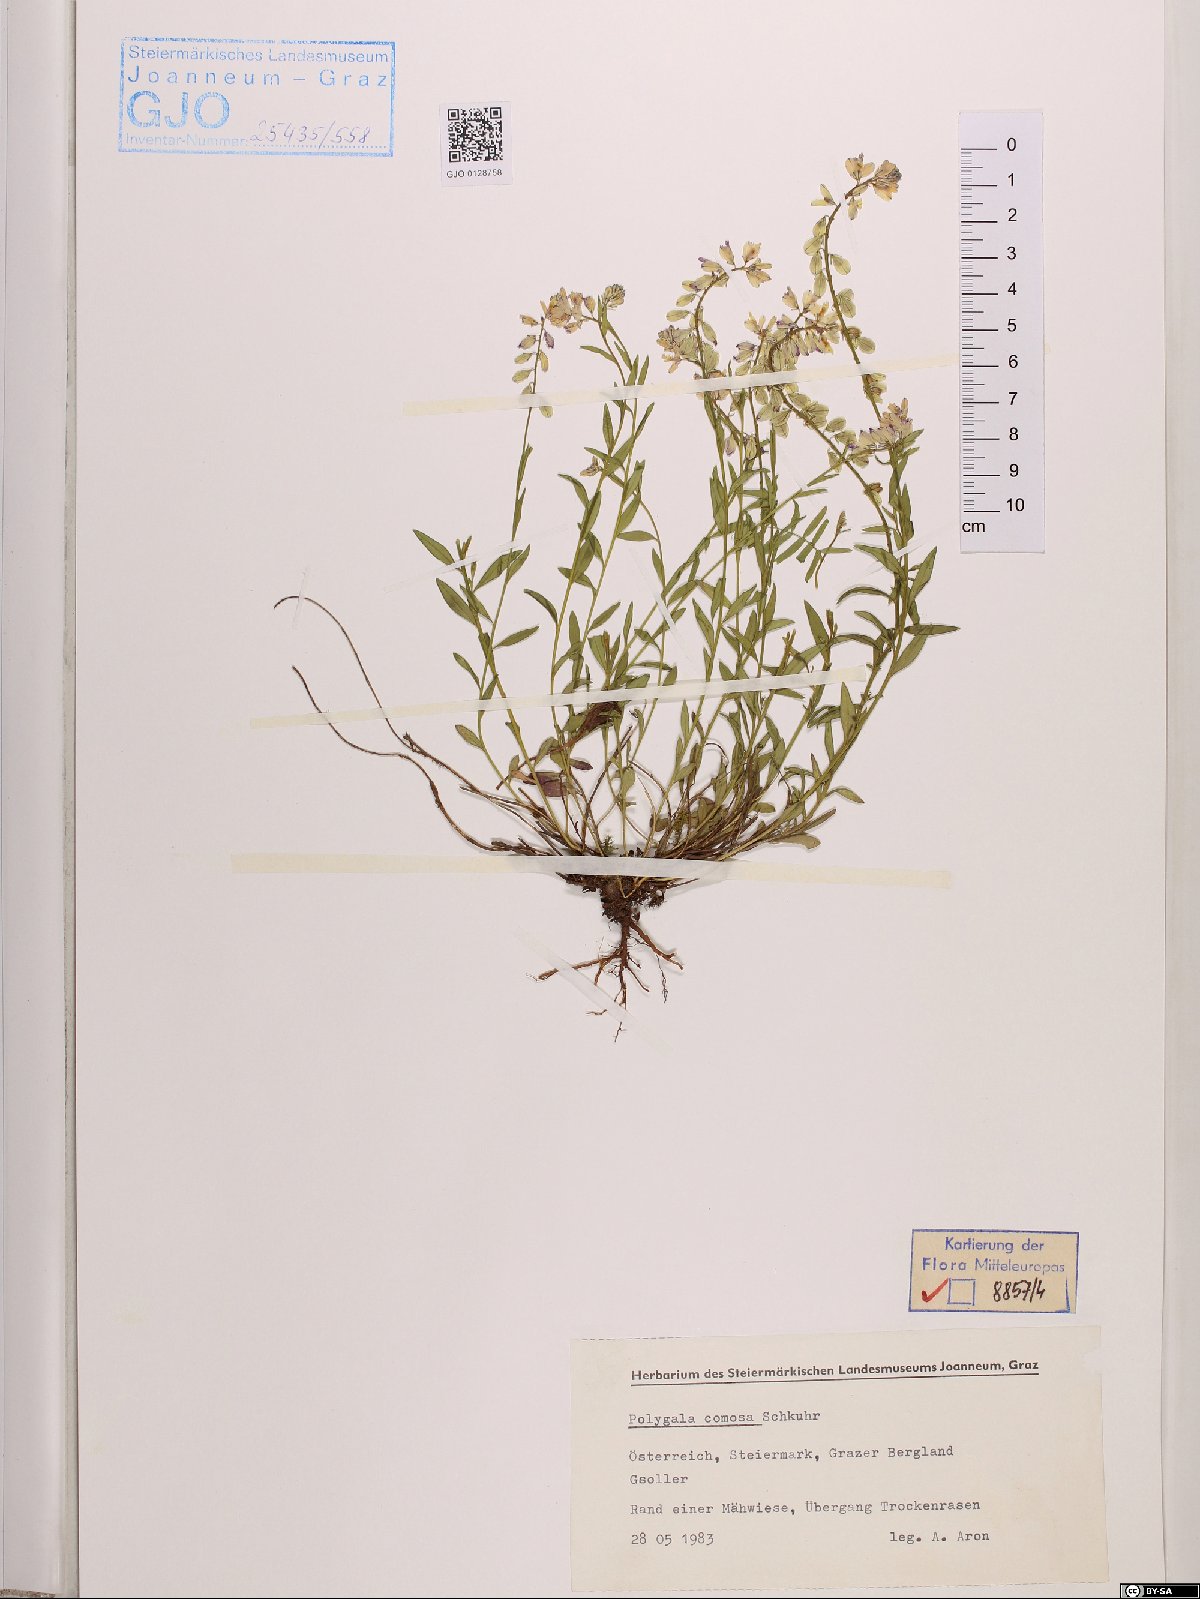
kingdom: Plantae
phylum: Tracheophyta
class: Magnoliopsida
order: Fabales
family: Polygalaceae
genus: Polygala
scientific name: Polygala comosa
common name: Tufted milkwort
